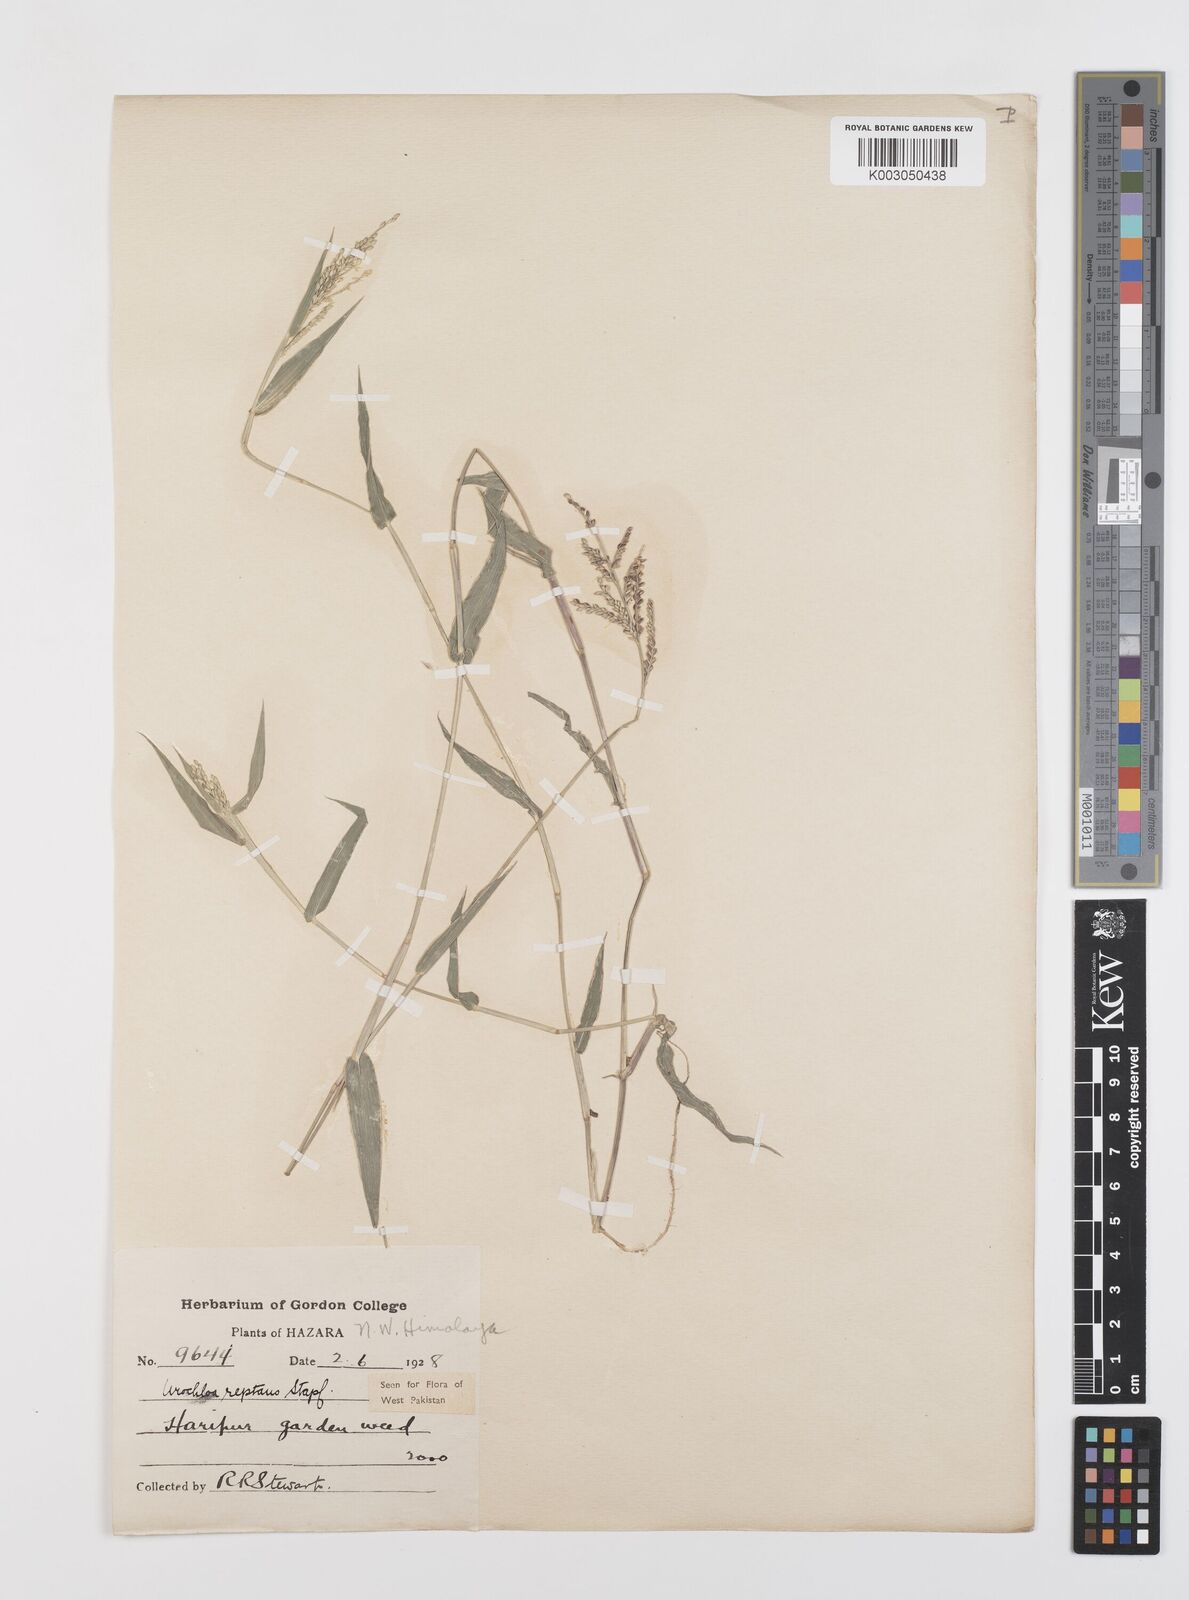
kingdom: Plantae
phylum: Tracheophyta
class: Liliopsida
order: Poales
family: Poaceae
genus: Urochloa
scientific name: Urochloa reptans
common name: Sprawling signalgrass
